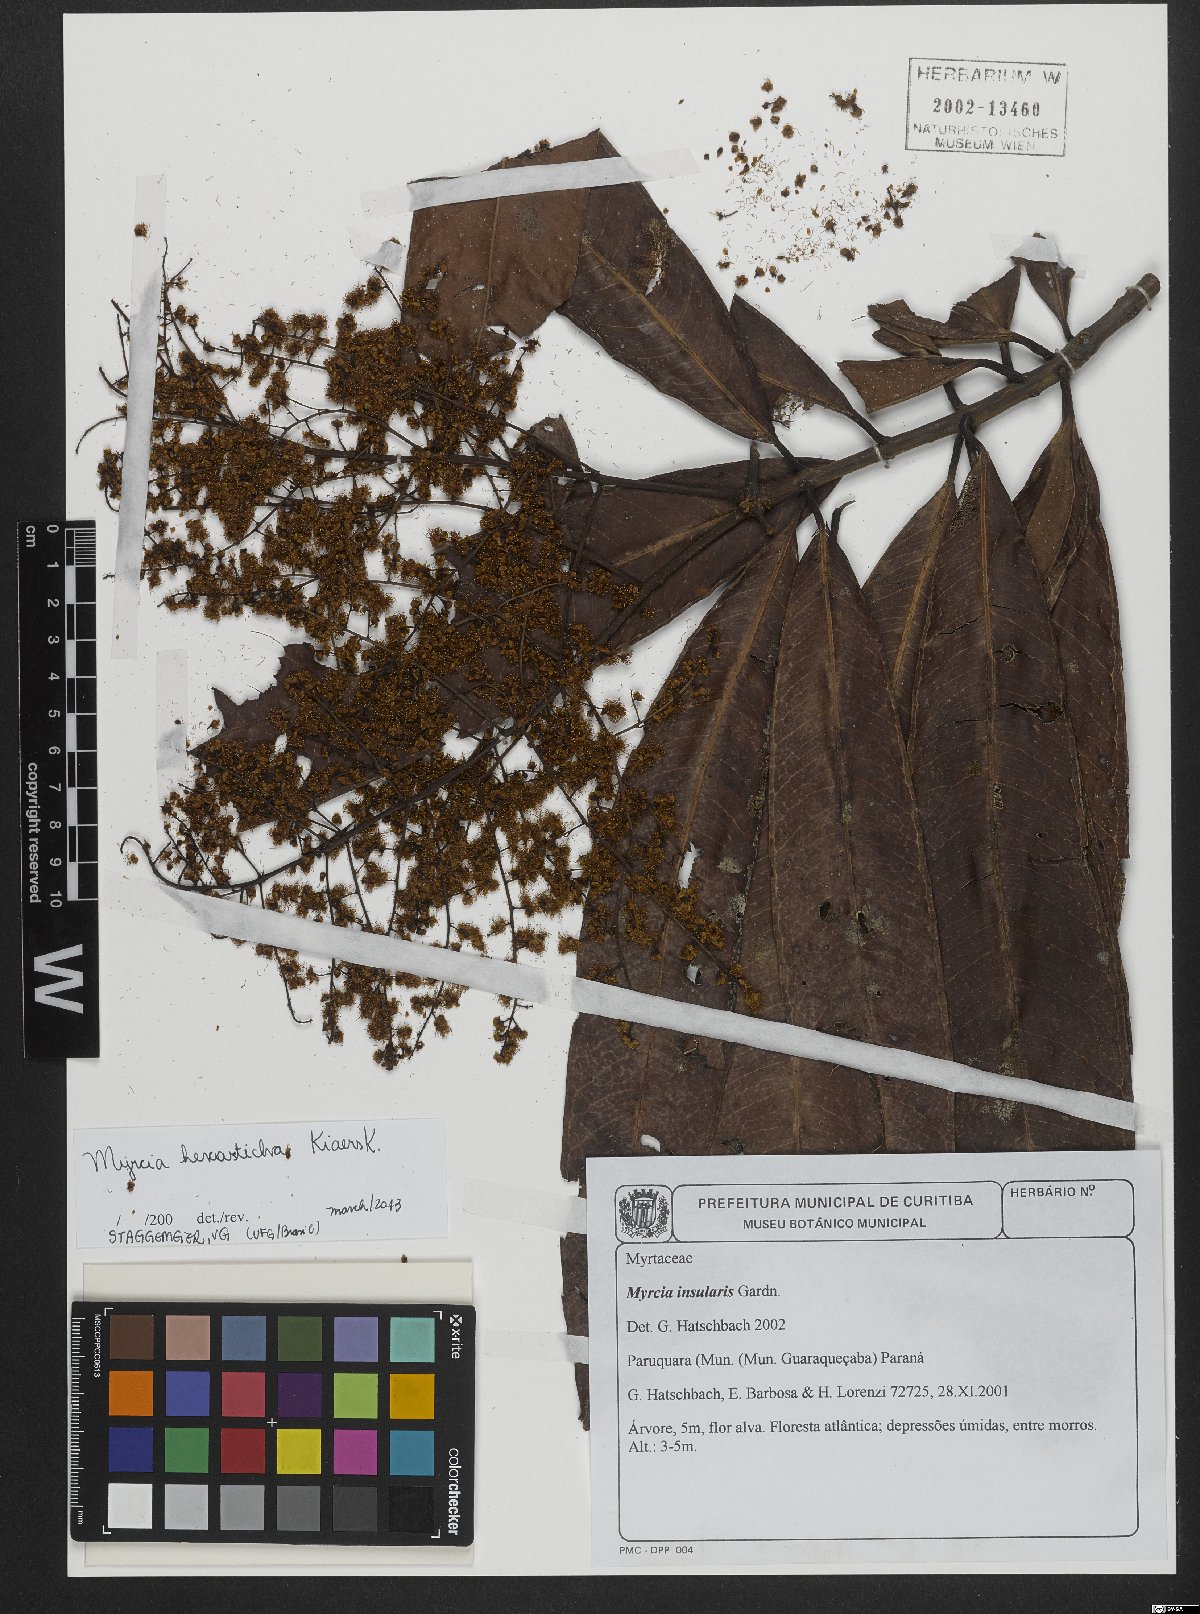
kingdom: Plantae
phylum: Tracheophyta
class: Magnoliopsida
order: Myrtales
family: Myrtaceae
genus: Myrcia
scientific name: Myrcia hexasticha
